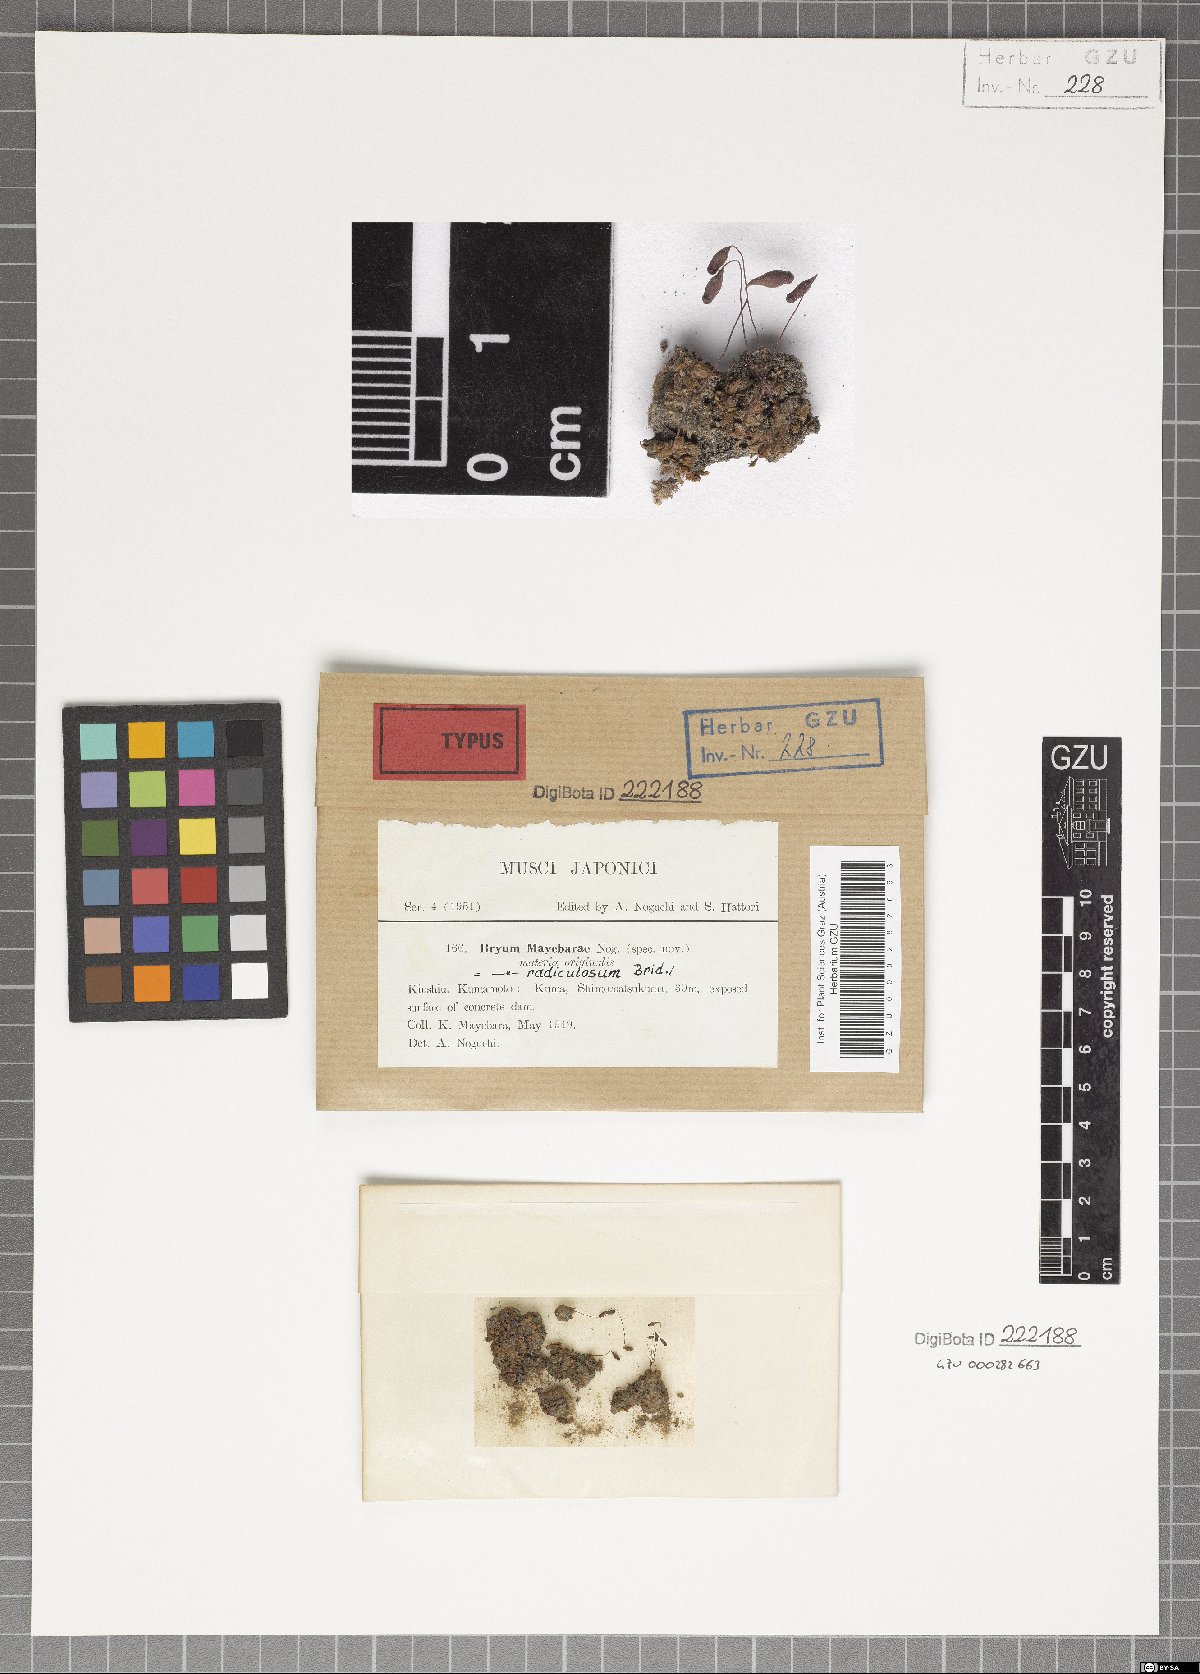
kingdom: Plantae
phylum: Bryophyta
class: Bryopsida
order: Bryales
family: Bryaceae
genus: Ptychostomum
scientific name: Ptychostomum compactum
